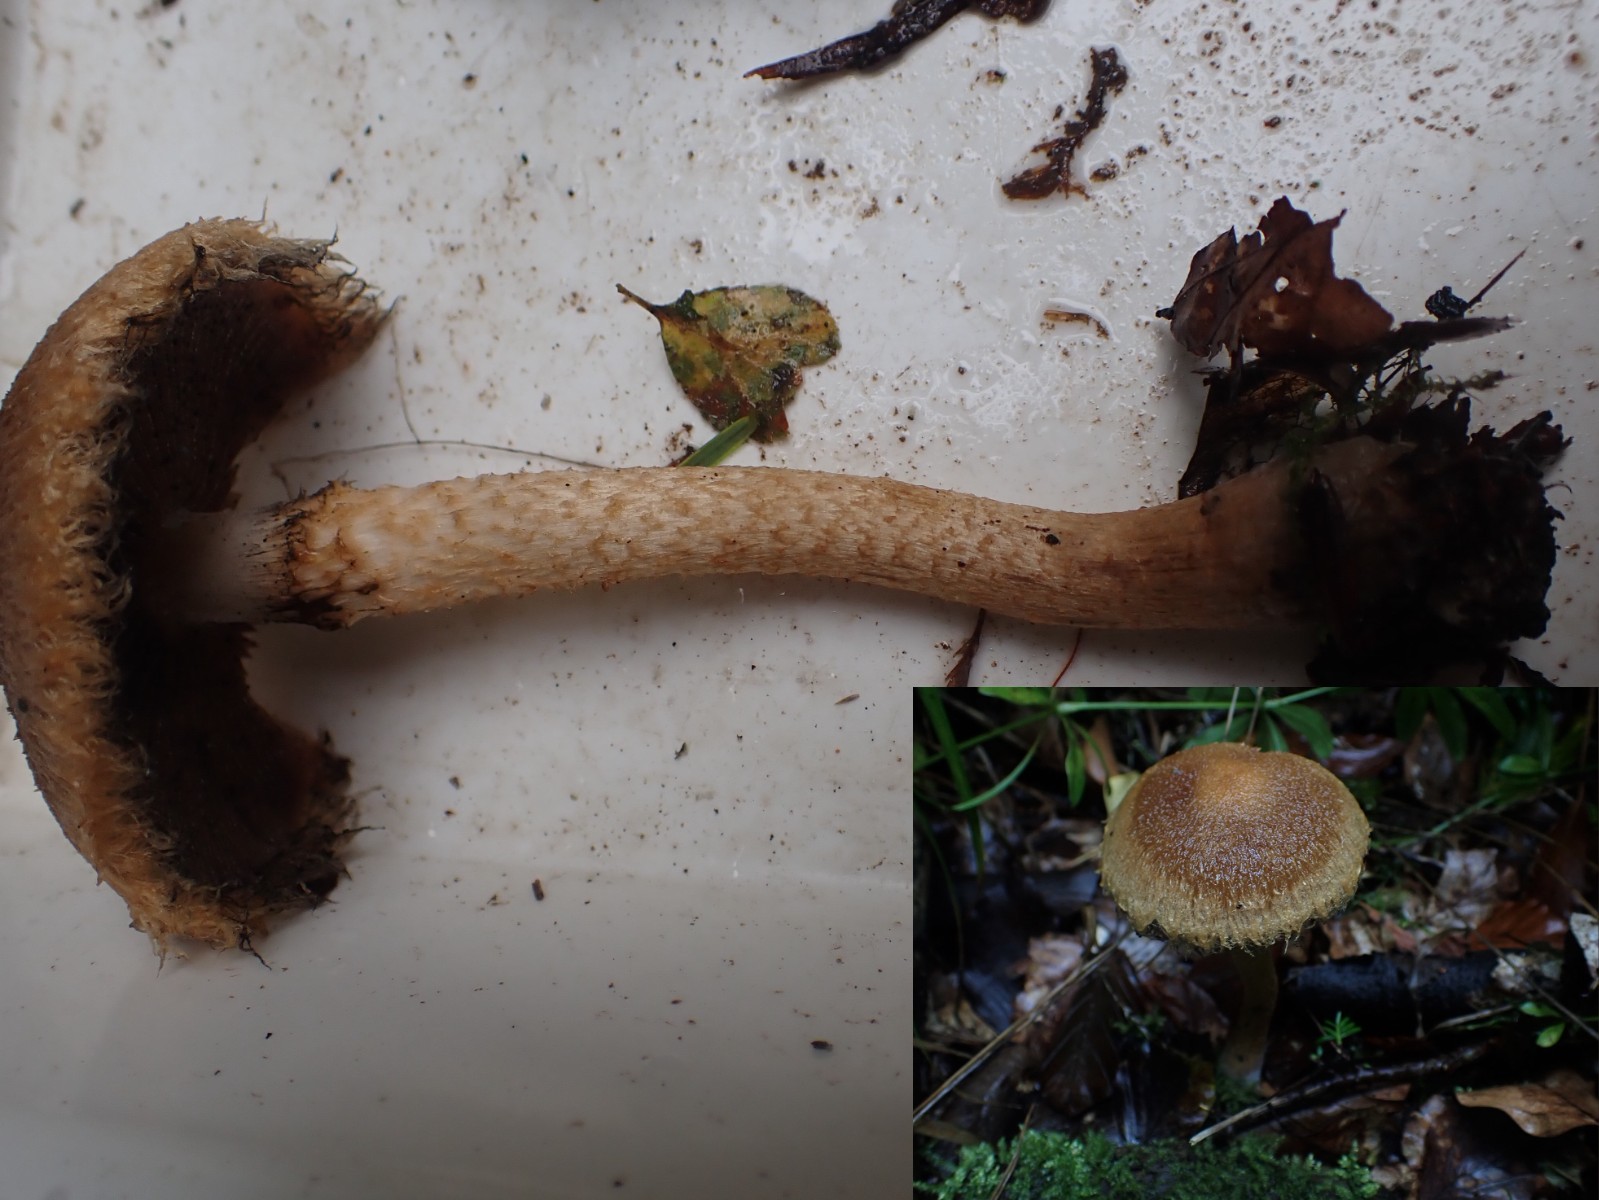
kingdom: Fungi
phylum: Basidiomycota
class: Agaricomycetes
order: Agaricales
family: Psathyrellaceae
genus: Lacrymaria
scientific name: Lacrymaria pyrotricha
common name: ildhåret mørkhat
